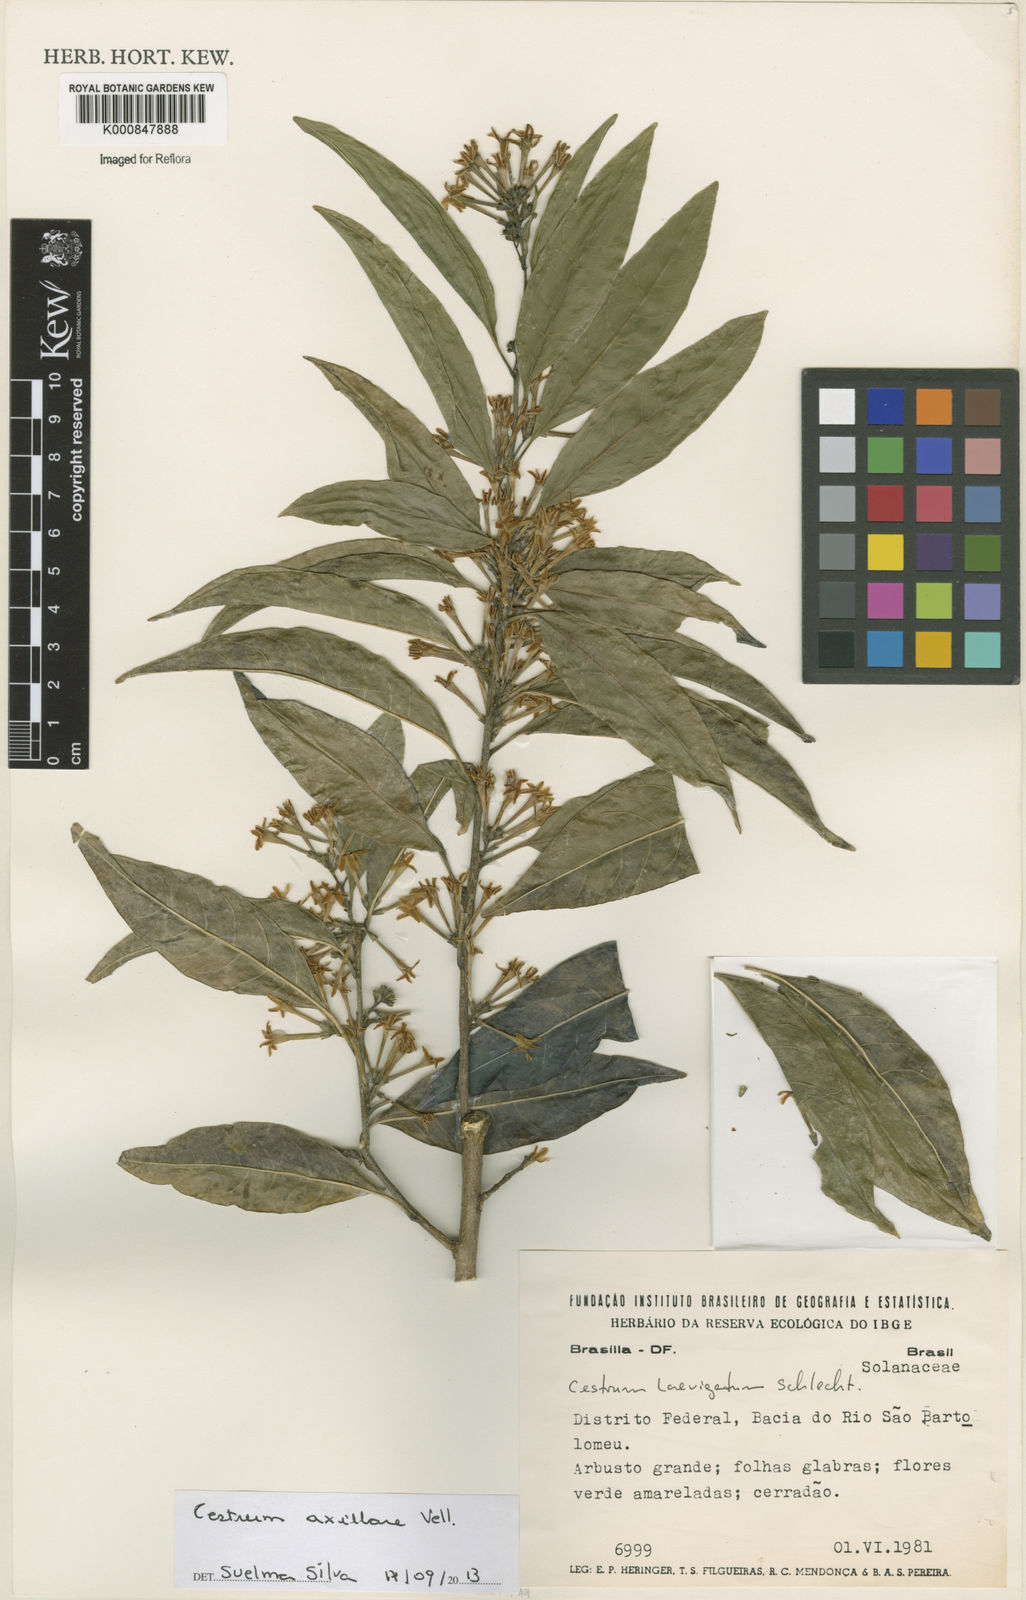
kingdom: Plantae
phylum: Tracheophyta
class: Magnoliopsida
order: Solanales
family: Solanaceae
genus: Cestrum
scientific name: Cestrum laevigatum
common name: Inkberry
